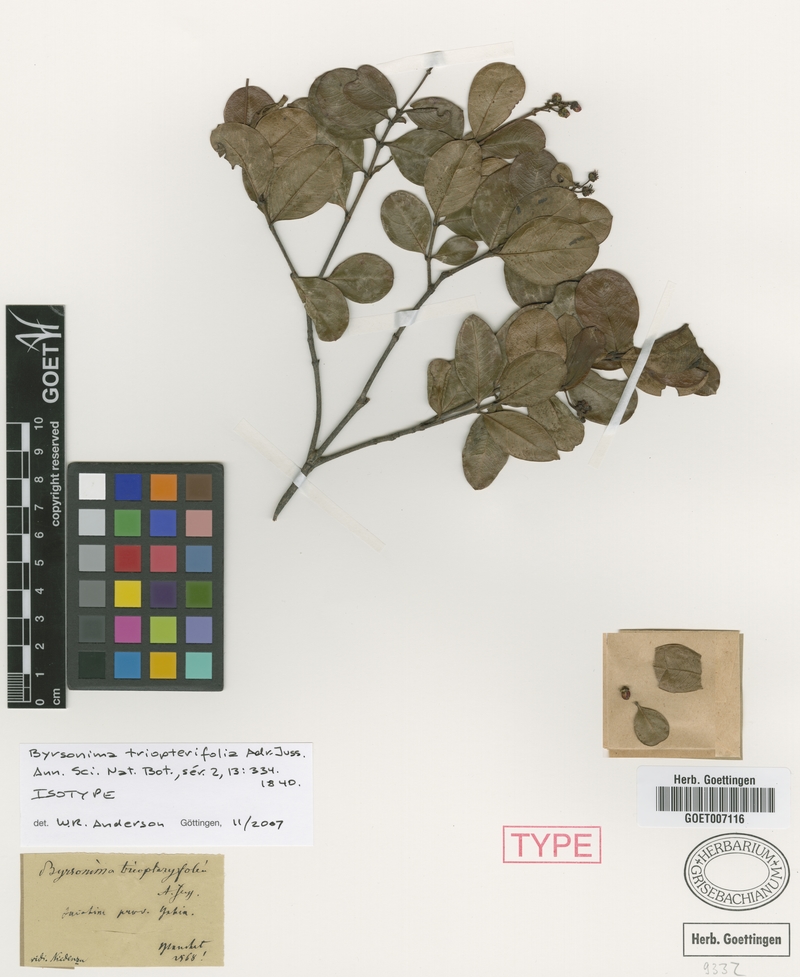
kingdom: Plantae
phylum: Tracheophyta
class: Magnoliopsida
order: Malpighiales
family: Malpighiaceae
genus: Byrsonima
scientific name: Byrsonima triopterifolia
